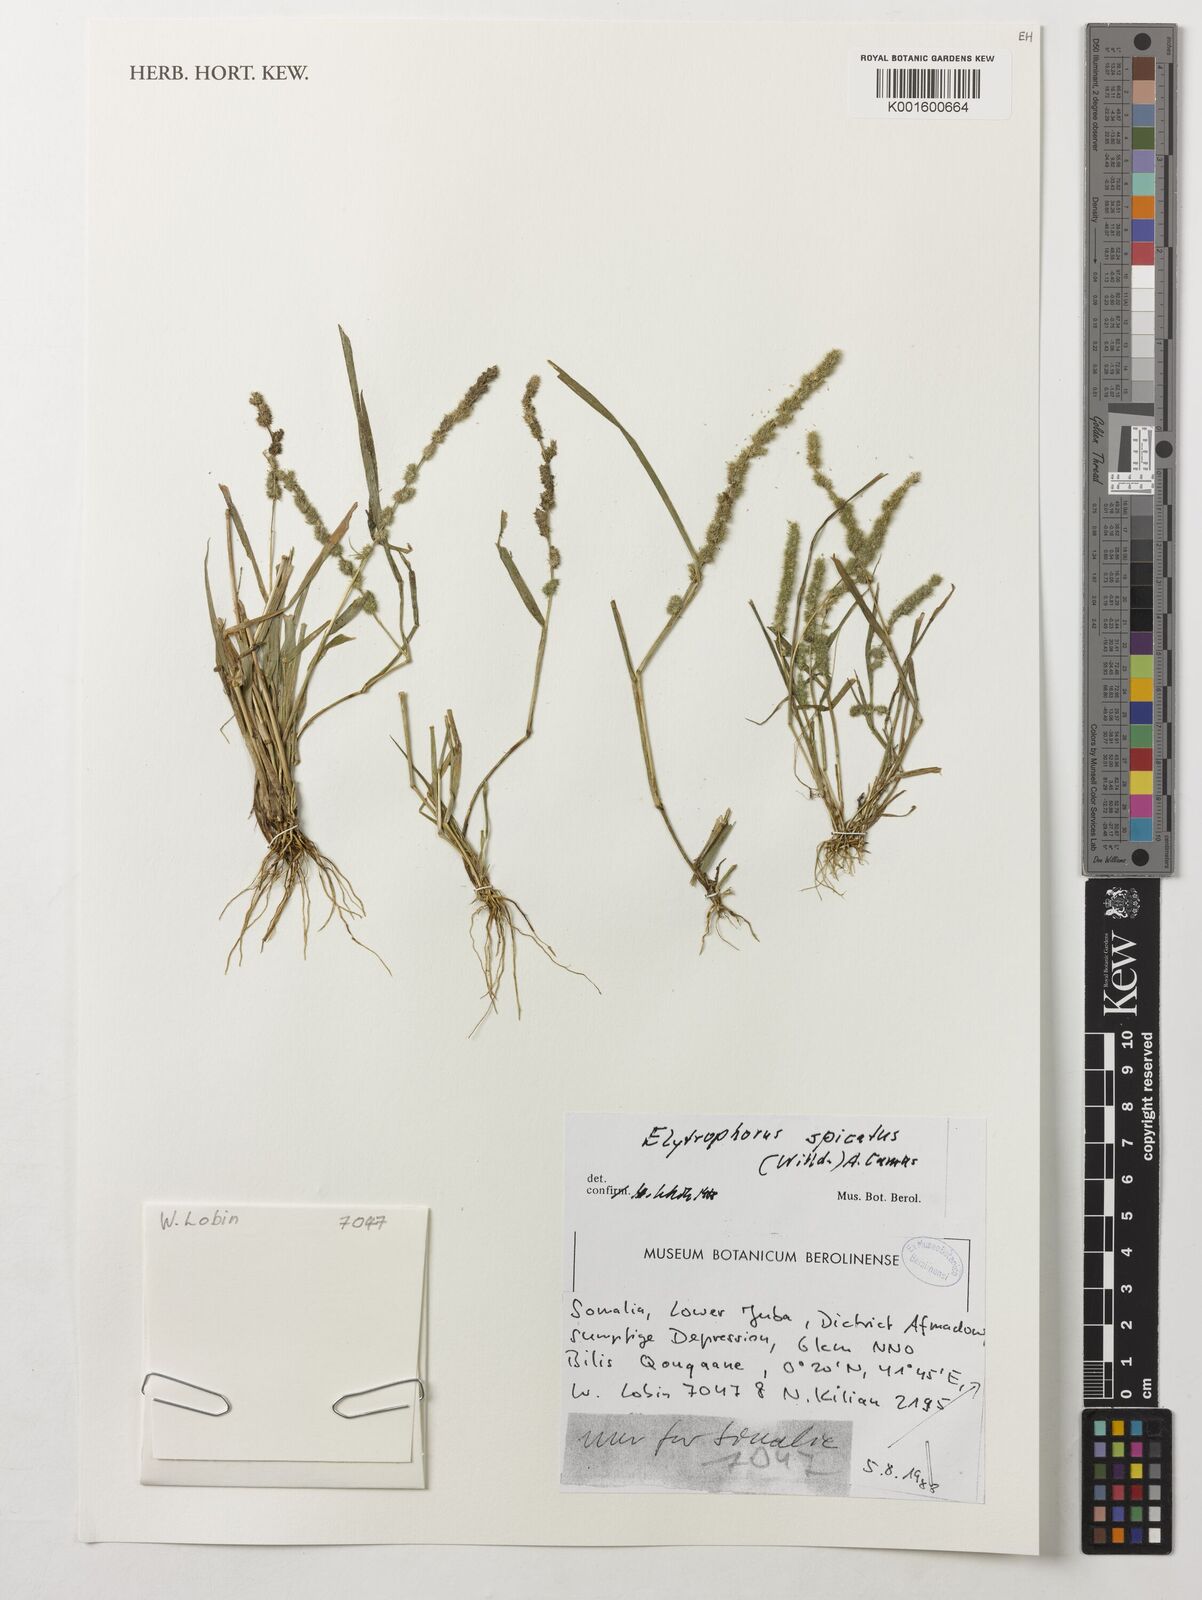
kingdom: Plantae
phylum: Tracheophyta
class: Liliopsida
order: Poales
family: Poaceae
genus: Elytrophorus
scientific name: Elytrophorus spicatus
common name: Spike grass
